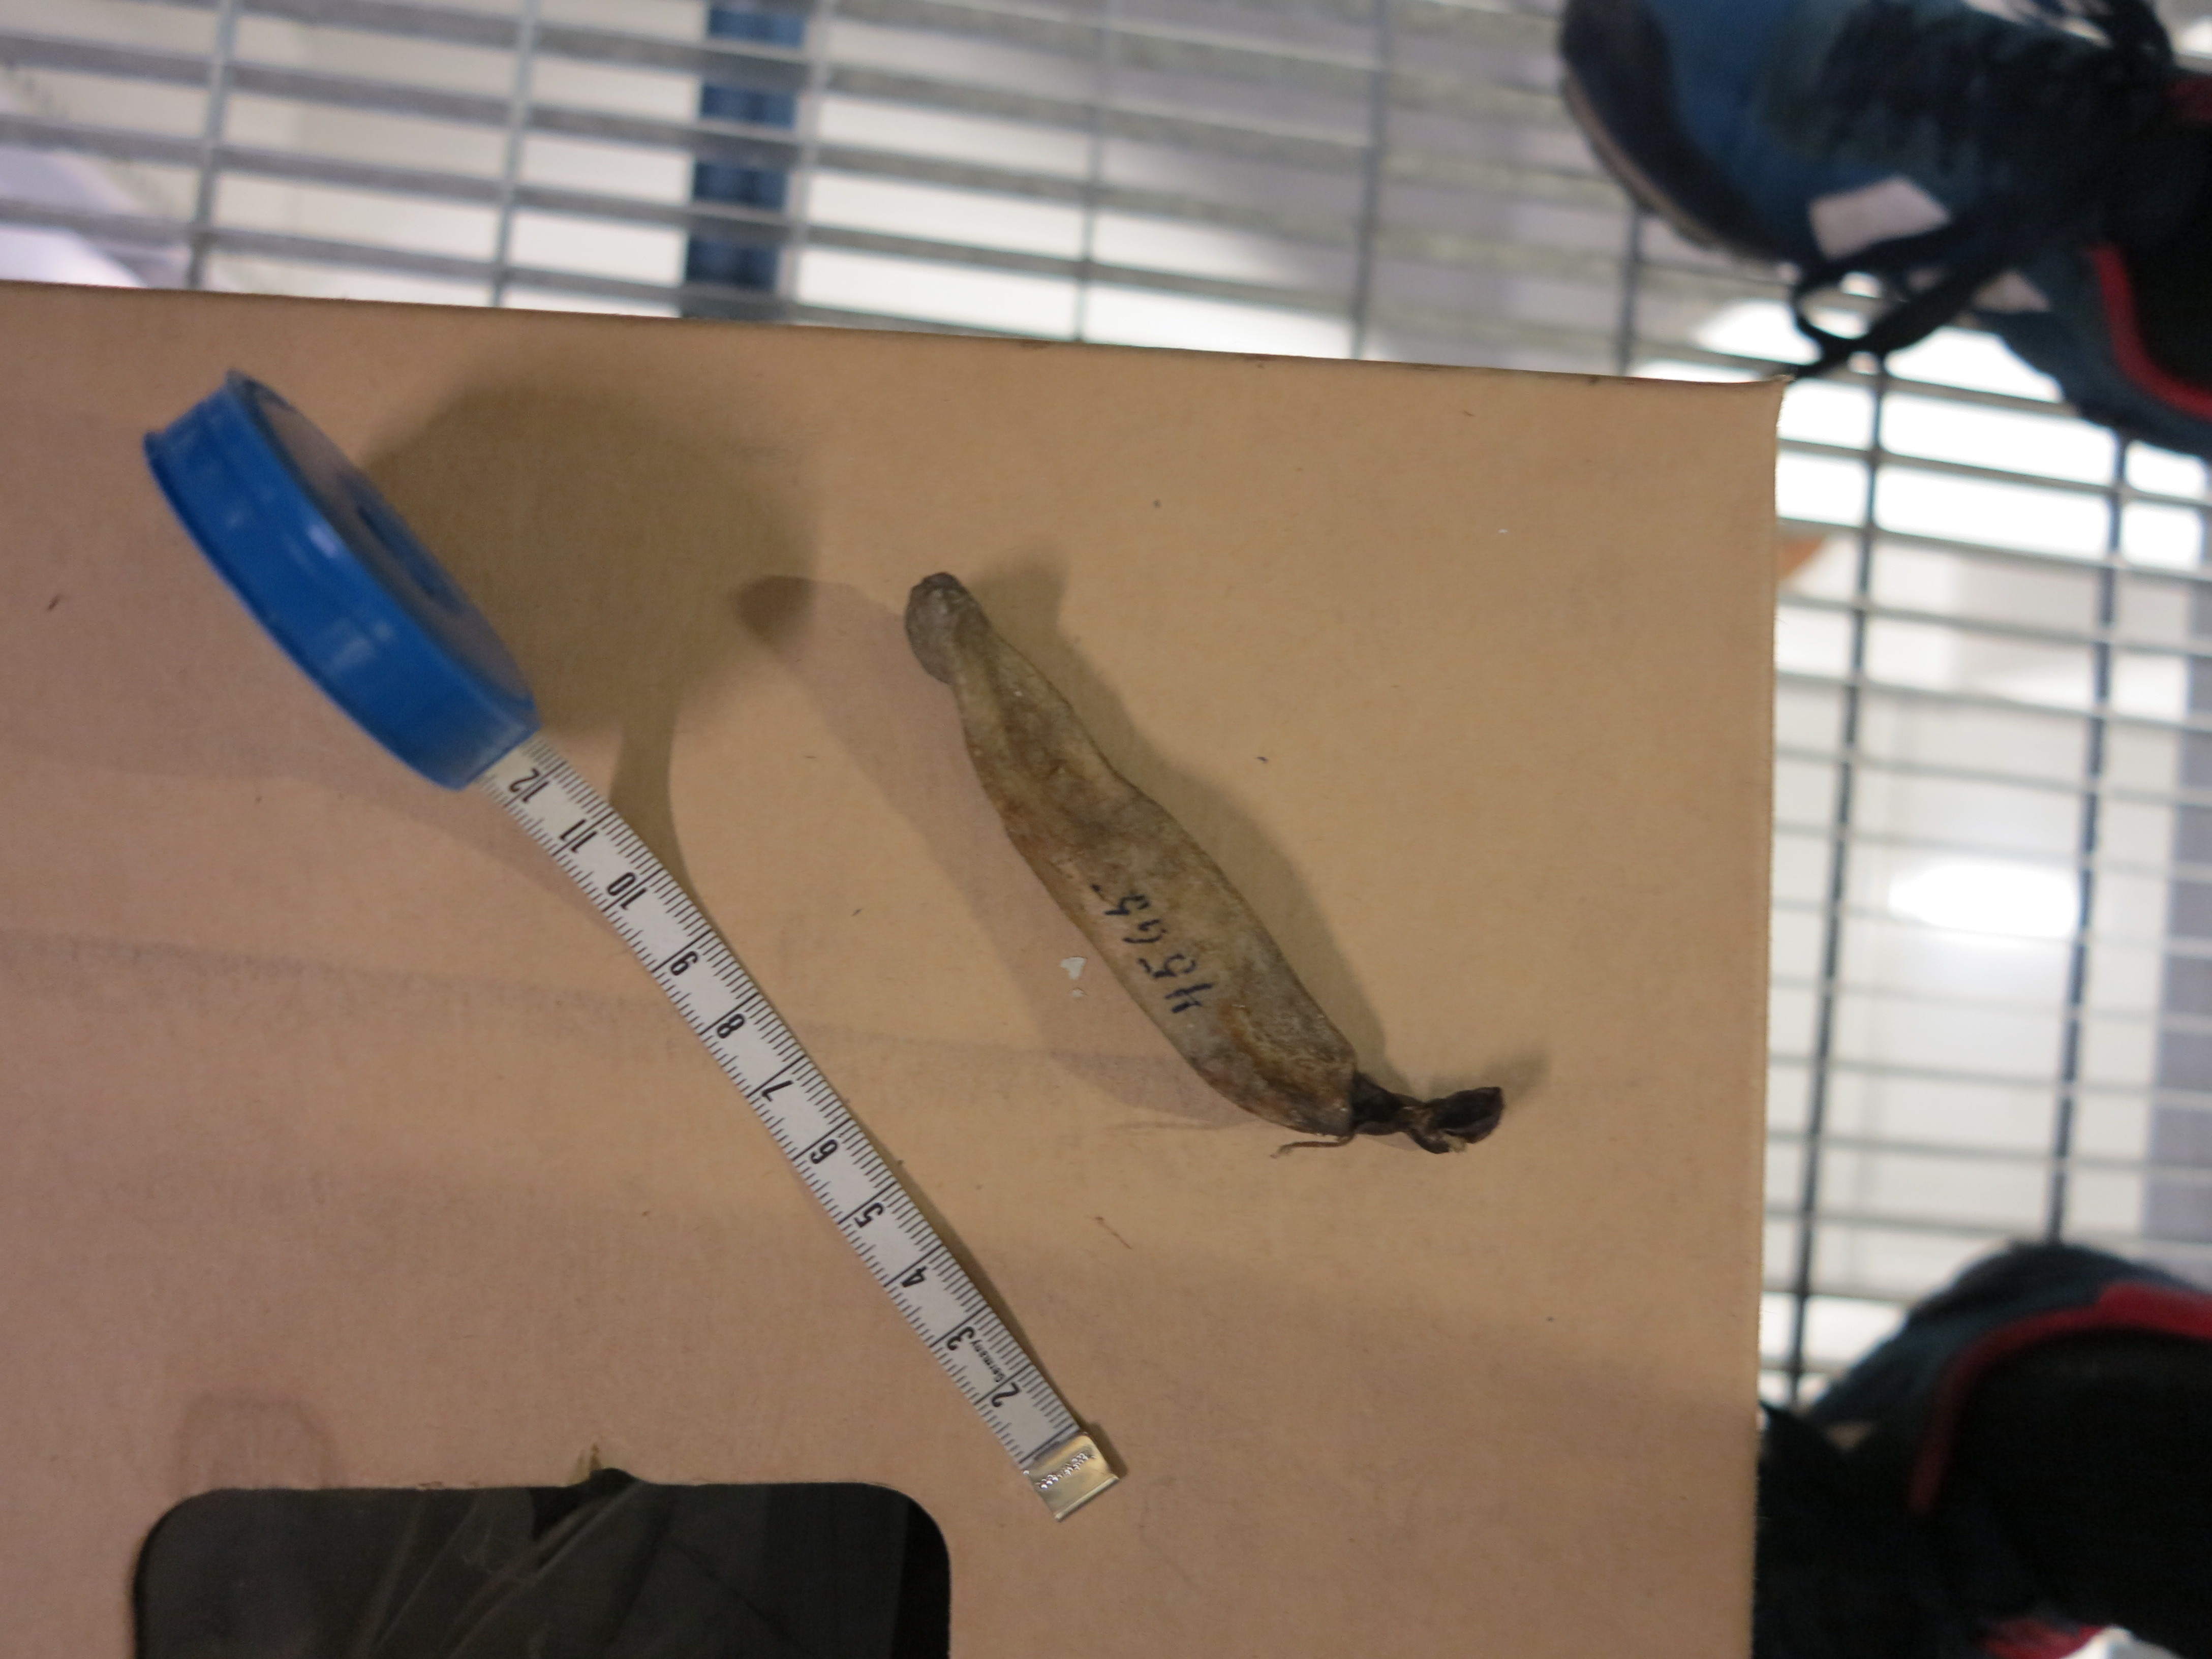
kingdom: Animalia
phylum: Chordata
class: Mammalia
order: Cetacea
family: Delphinidae
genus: Lagenorhynchus
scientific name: Lagenorhynchus acutus
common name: Atlantic white-sided dolphin
